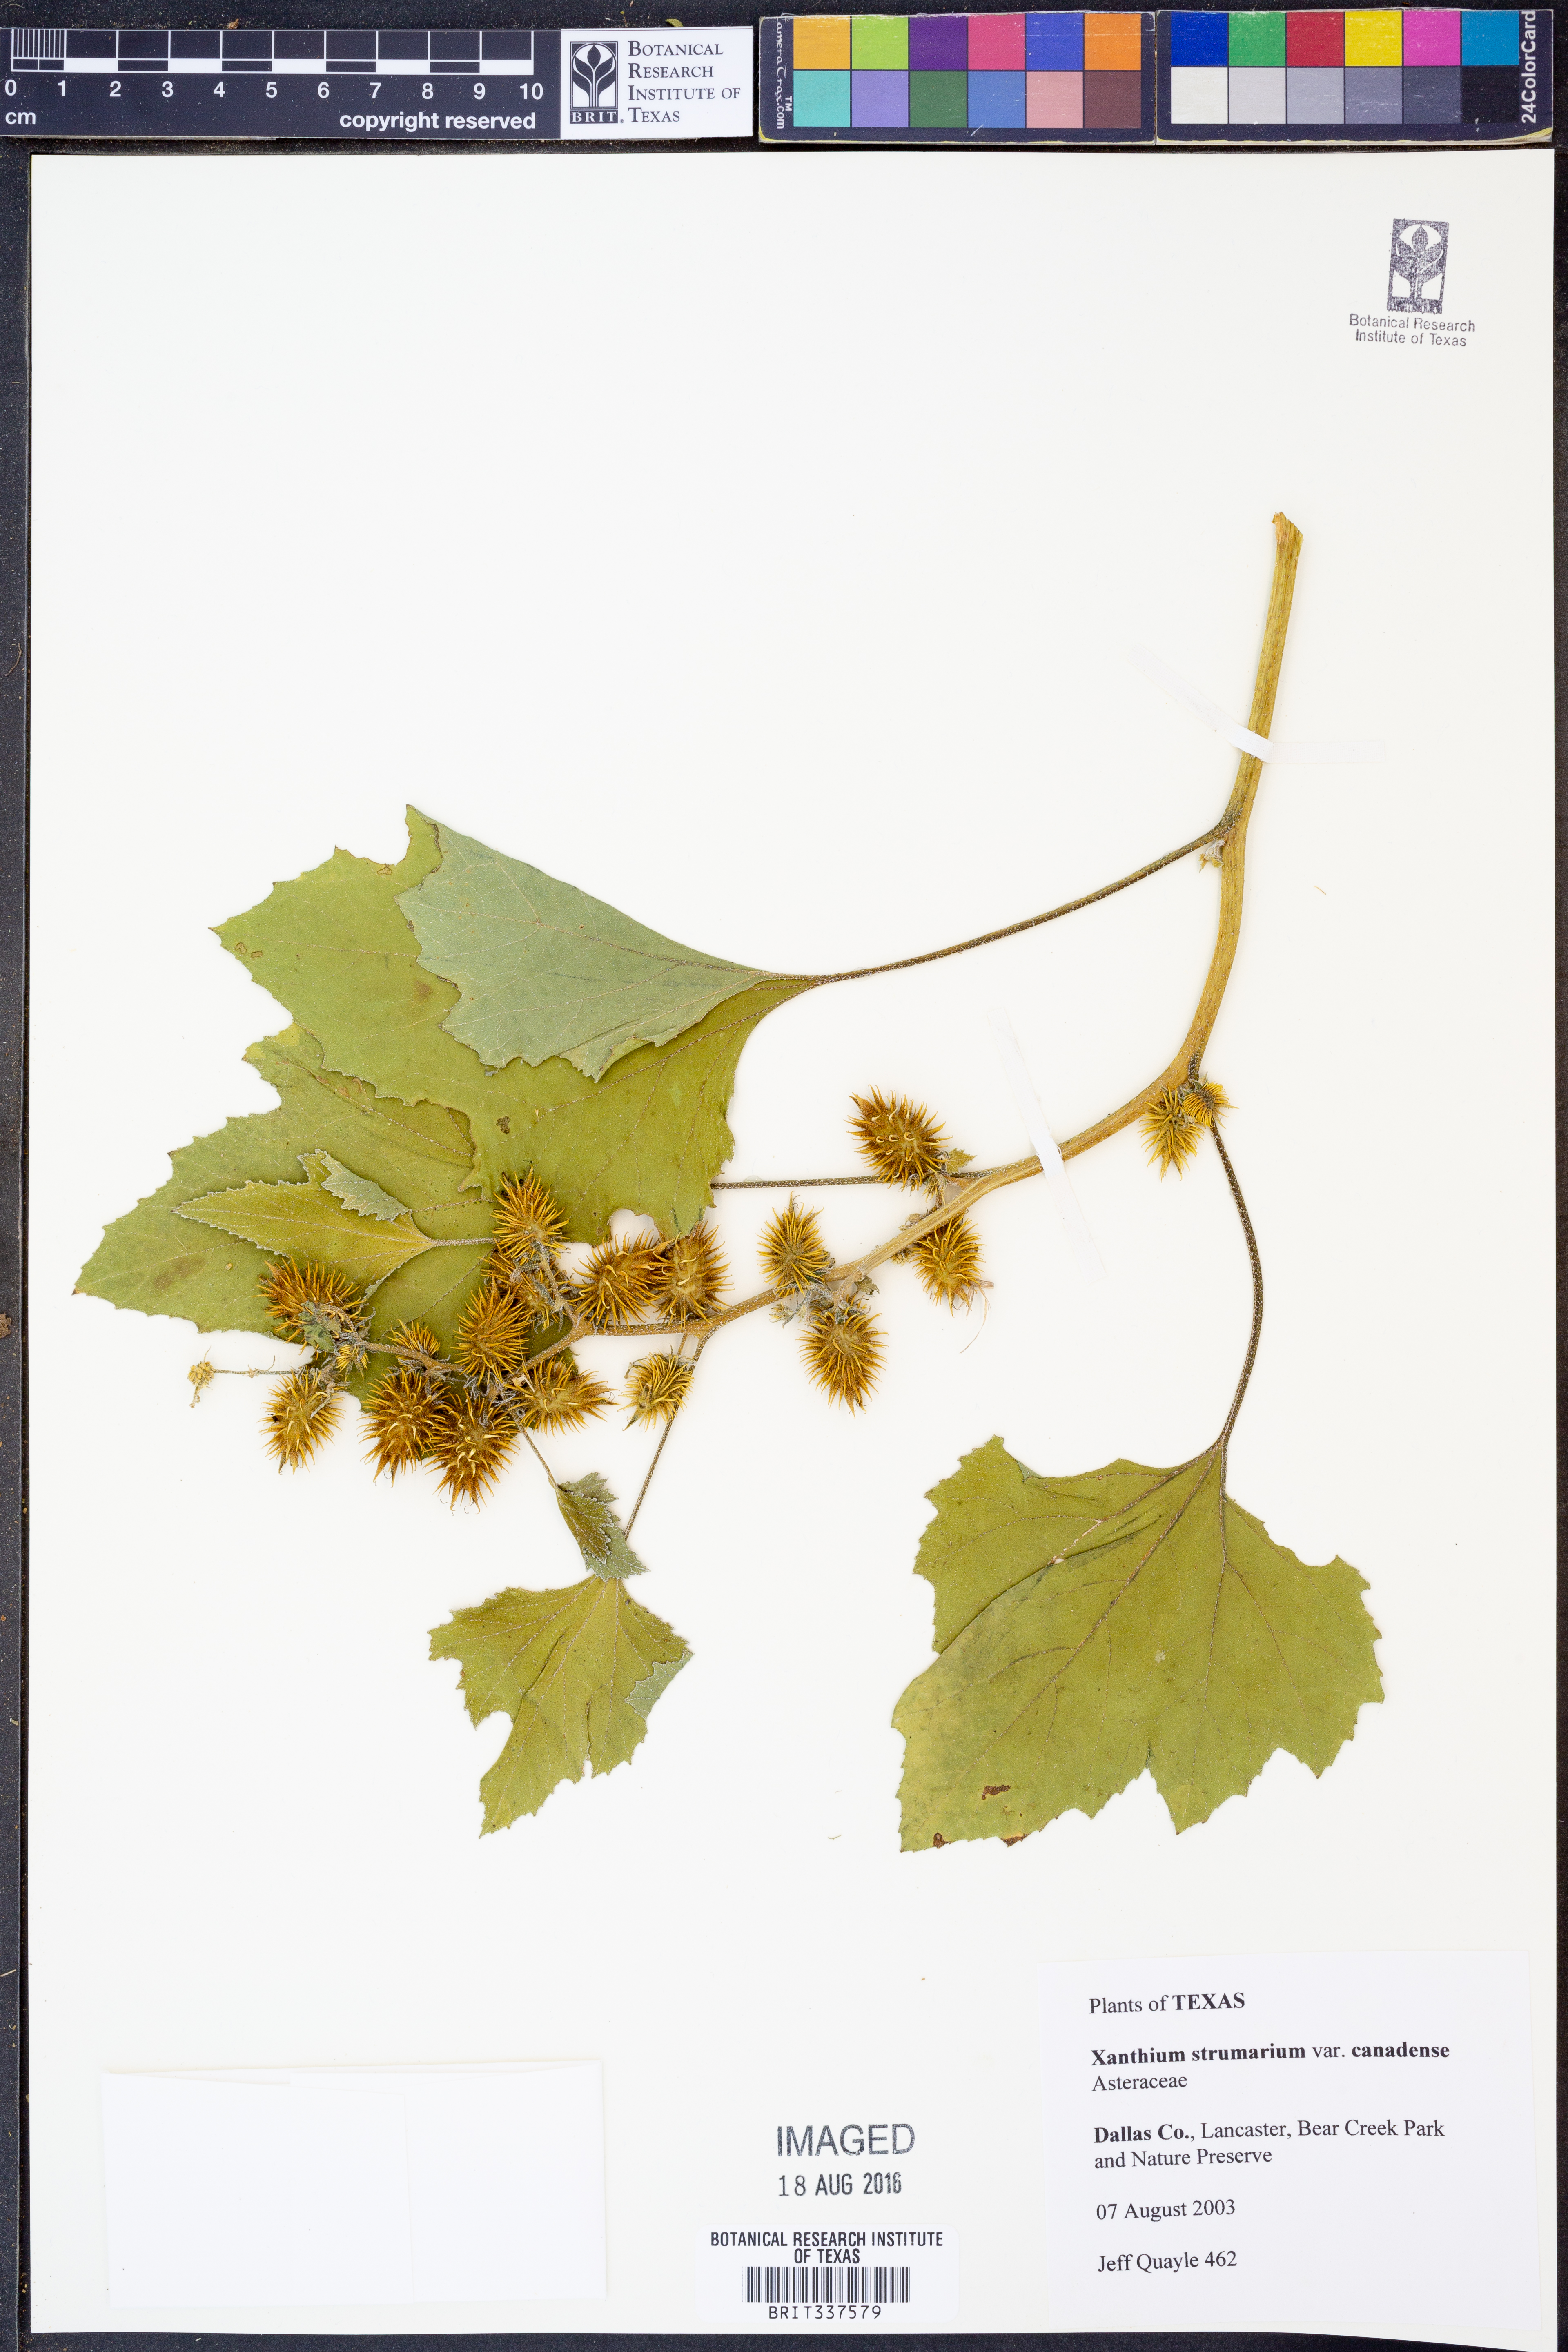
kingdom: Plantae
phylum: Tracheophyta
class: Magnoliopsida
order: Asterales
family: Asteraceae
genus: Xanthium
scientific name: Xanthium orientale
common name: Californian burr
